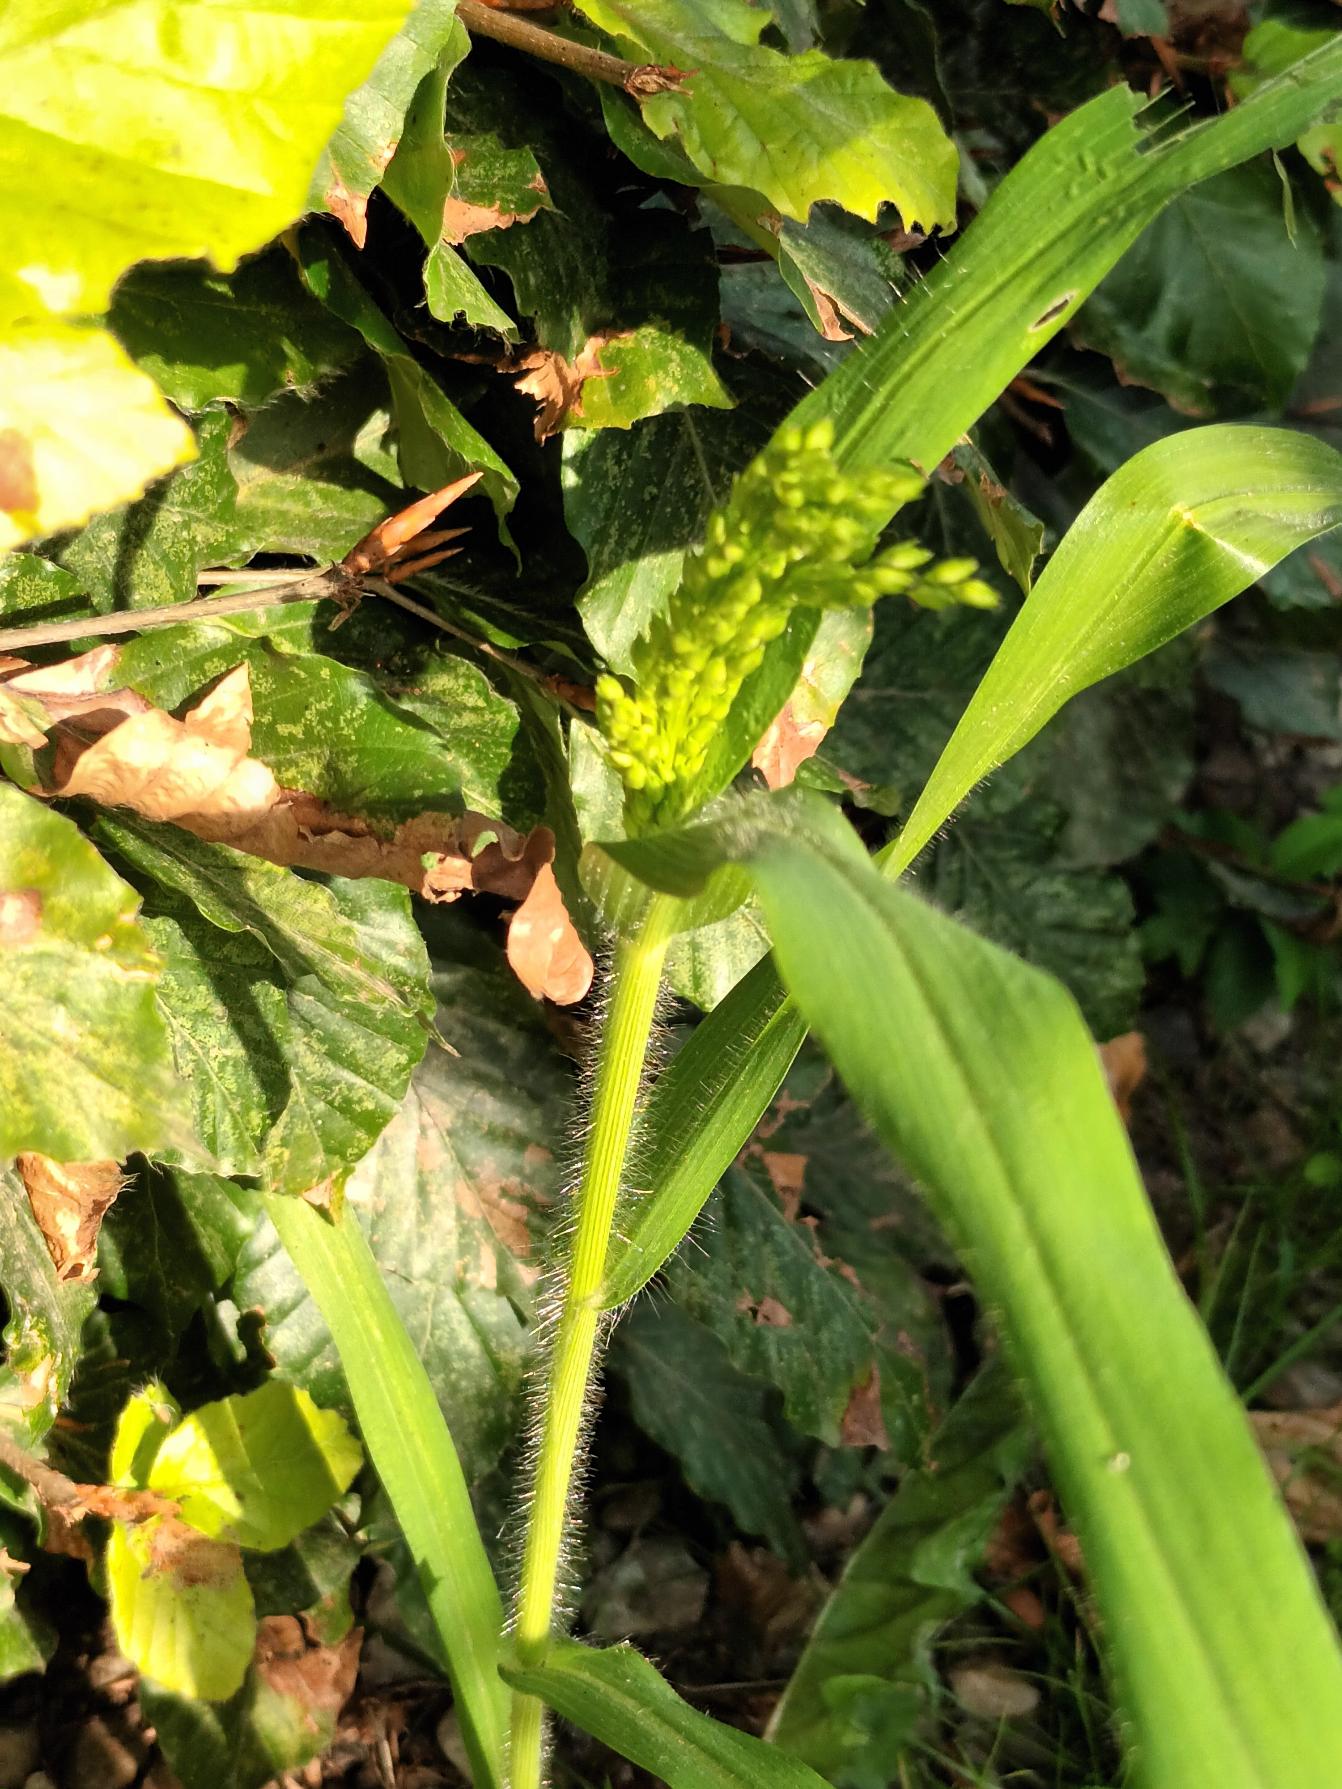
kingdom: Plantae
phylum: Tracheophyta
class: Liliopsida
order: Poales
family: Poaceae
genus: Panicum
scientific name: Panicum miliaceum
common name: Almindelig hirse
